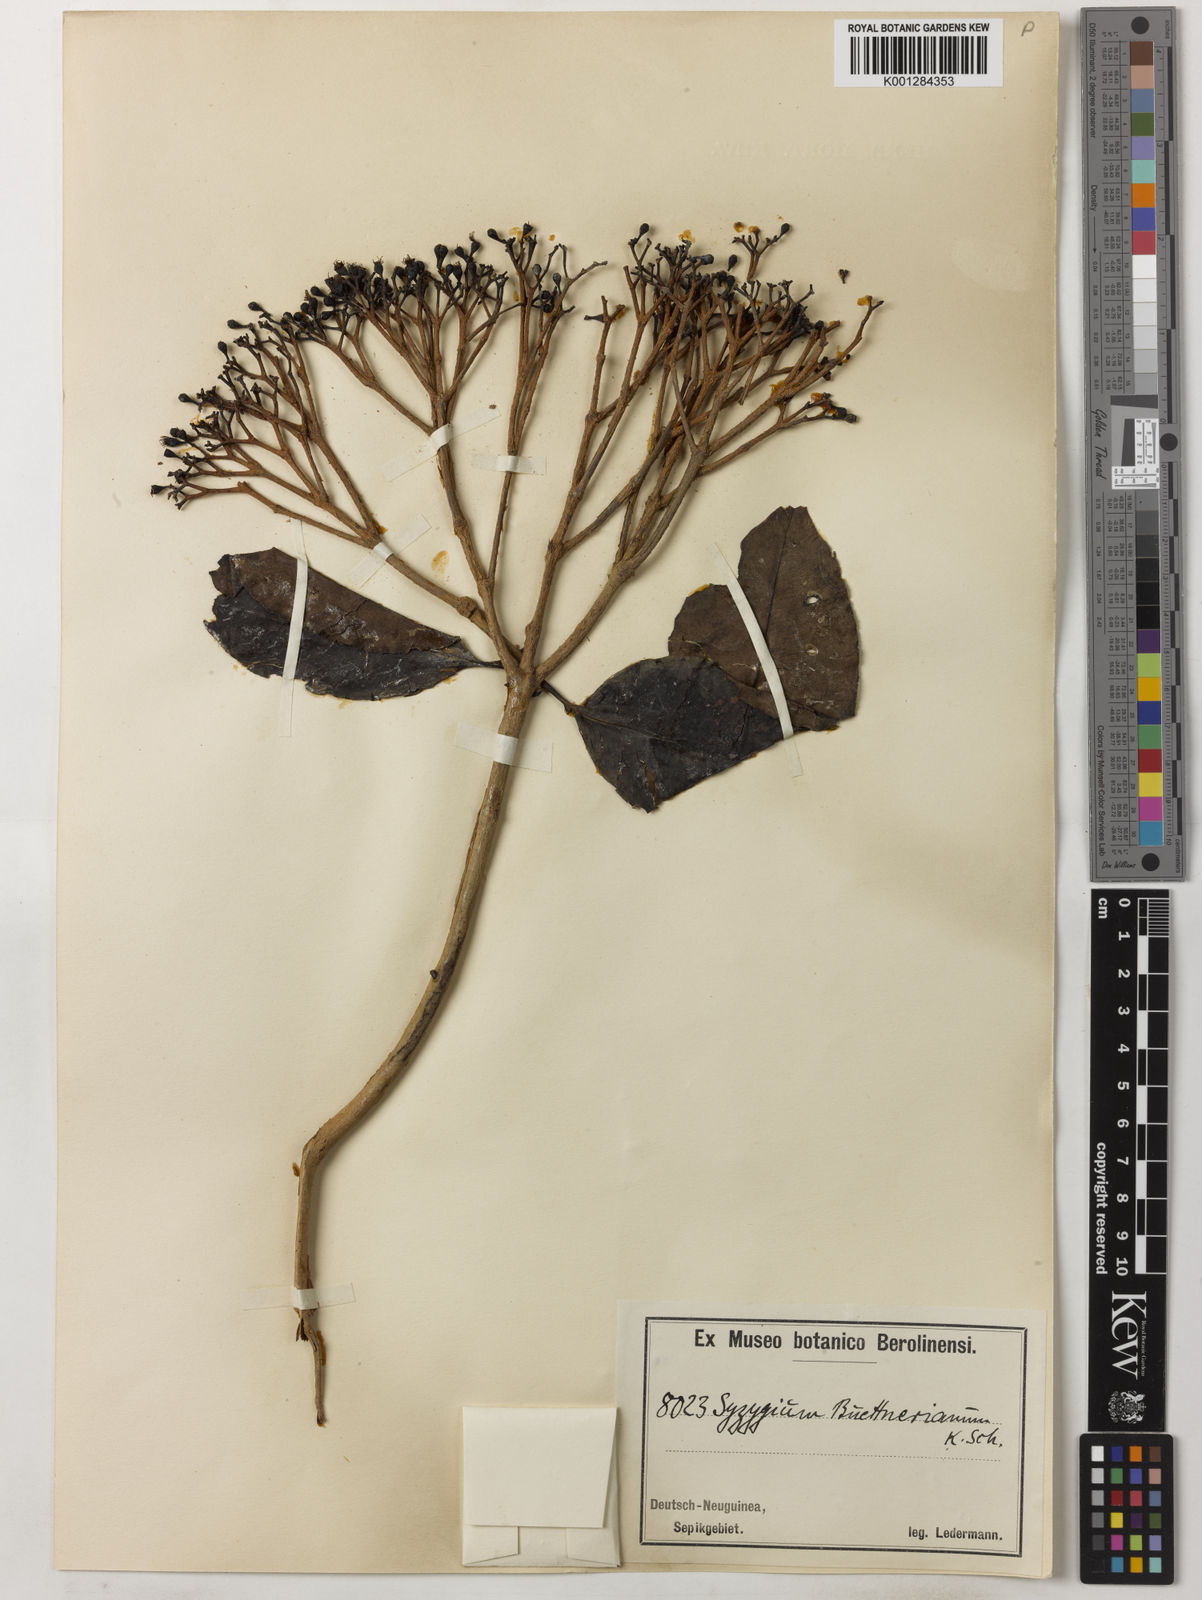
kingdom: Plantae
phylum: Tracheophyta
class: Magnoliopsida
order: Myrtales
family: Myrtaceae
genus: Syzygium
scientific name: Syzygium buettnerianum
